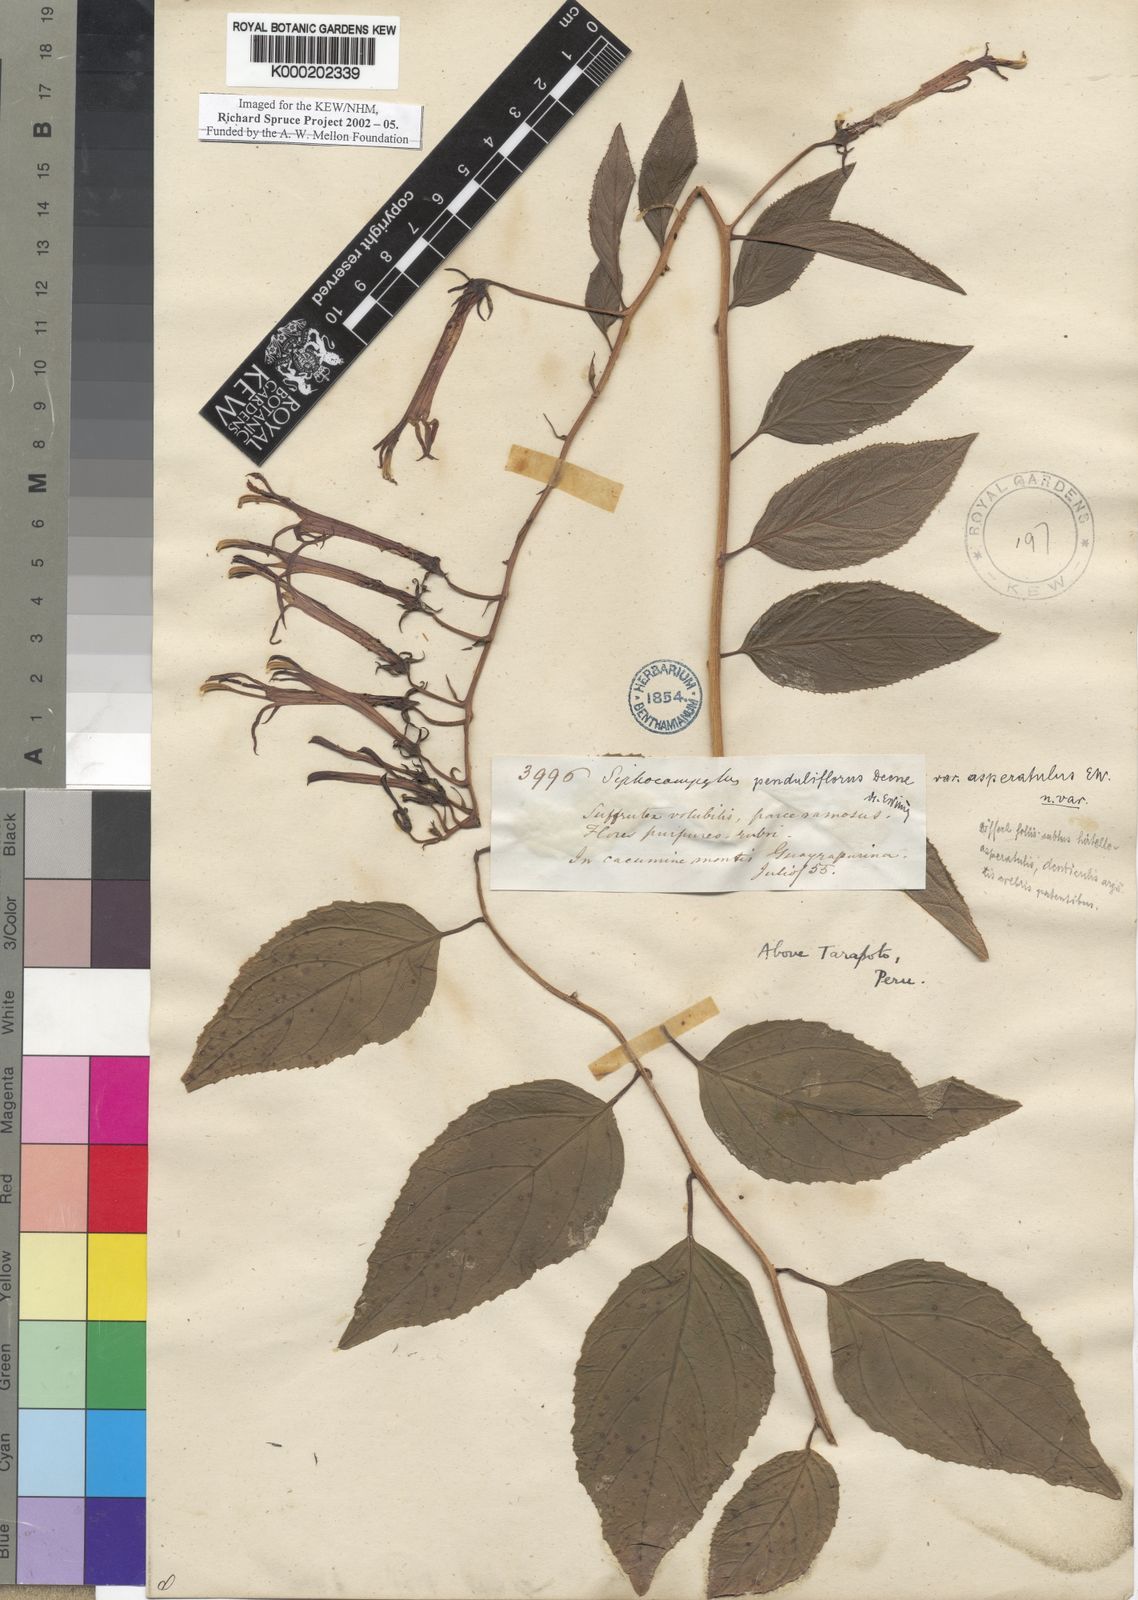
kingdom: Plantae
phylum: Tracheophyta
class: Magnoliopsida
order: Asterales
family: Campanulaceae
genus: Siphocampylus
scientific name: Siphocampylus penduliflorus
